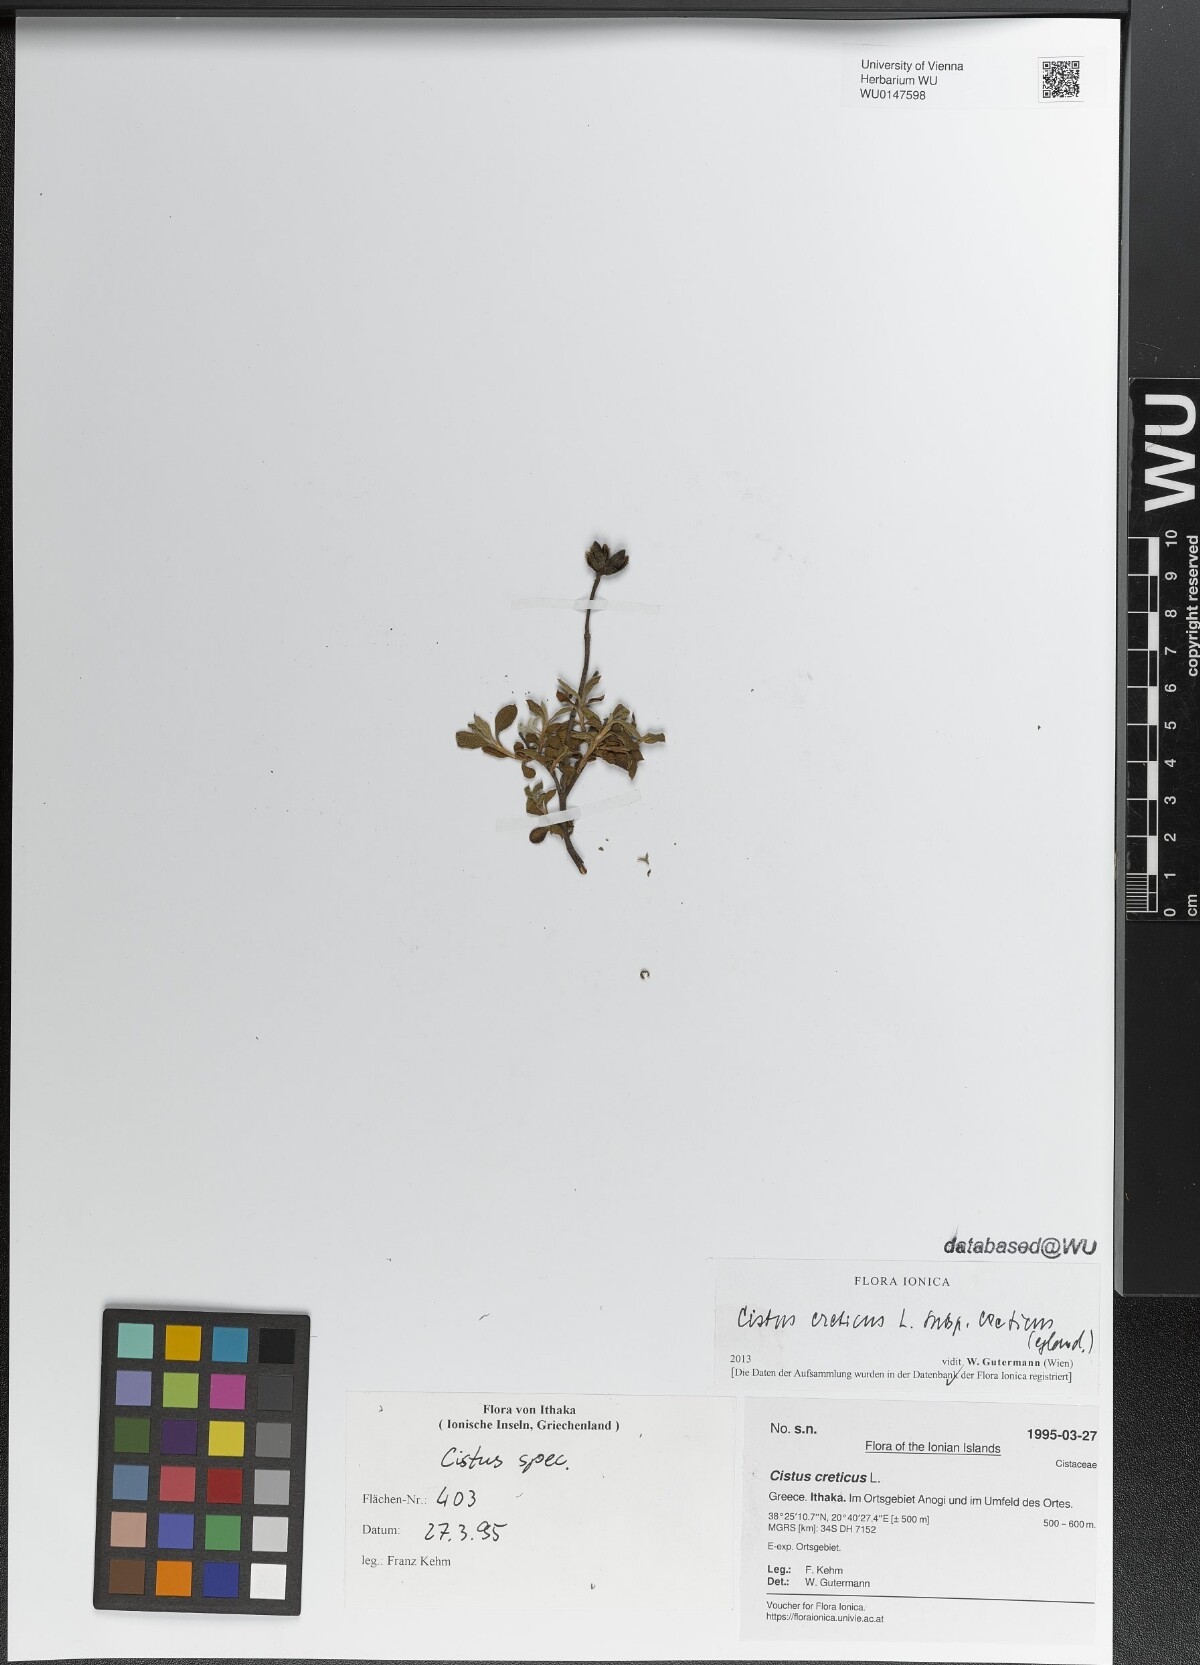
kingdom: Plantae
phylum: Tracheophyta
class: Magnoliopsida
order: Malvales
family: Cistaceae
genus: Cistus
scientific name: Cistus creticus
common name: Cretan rockrose
